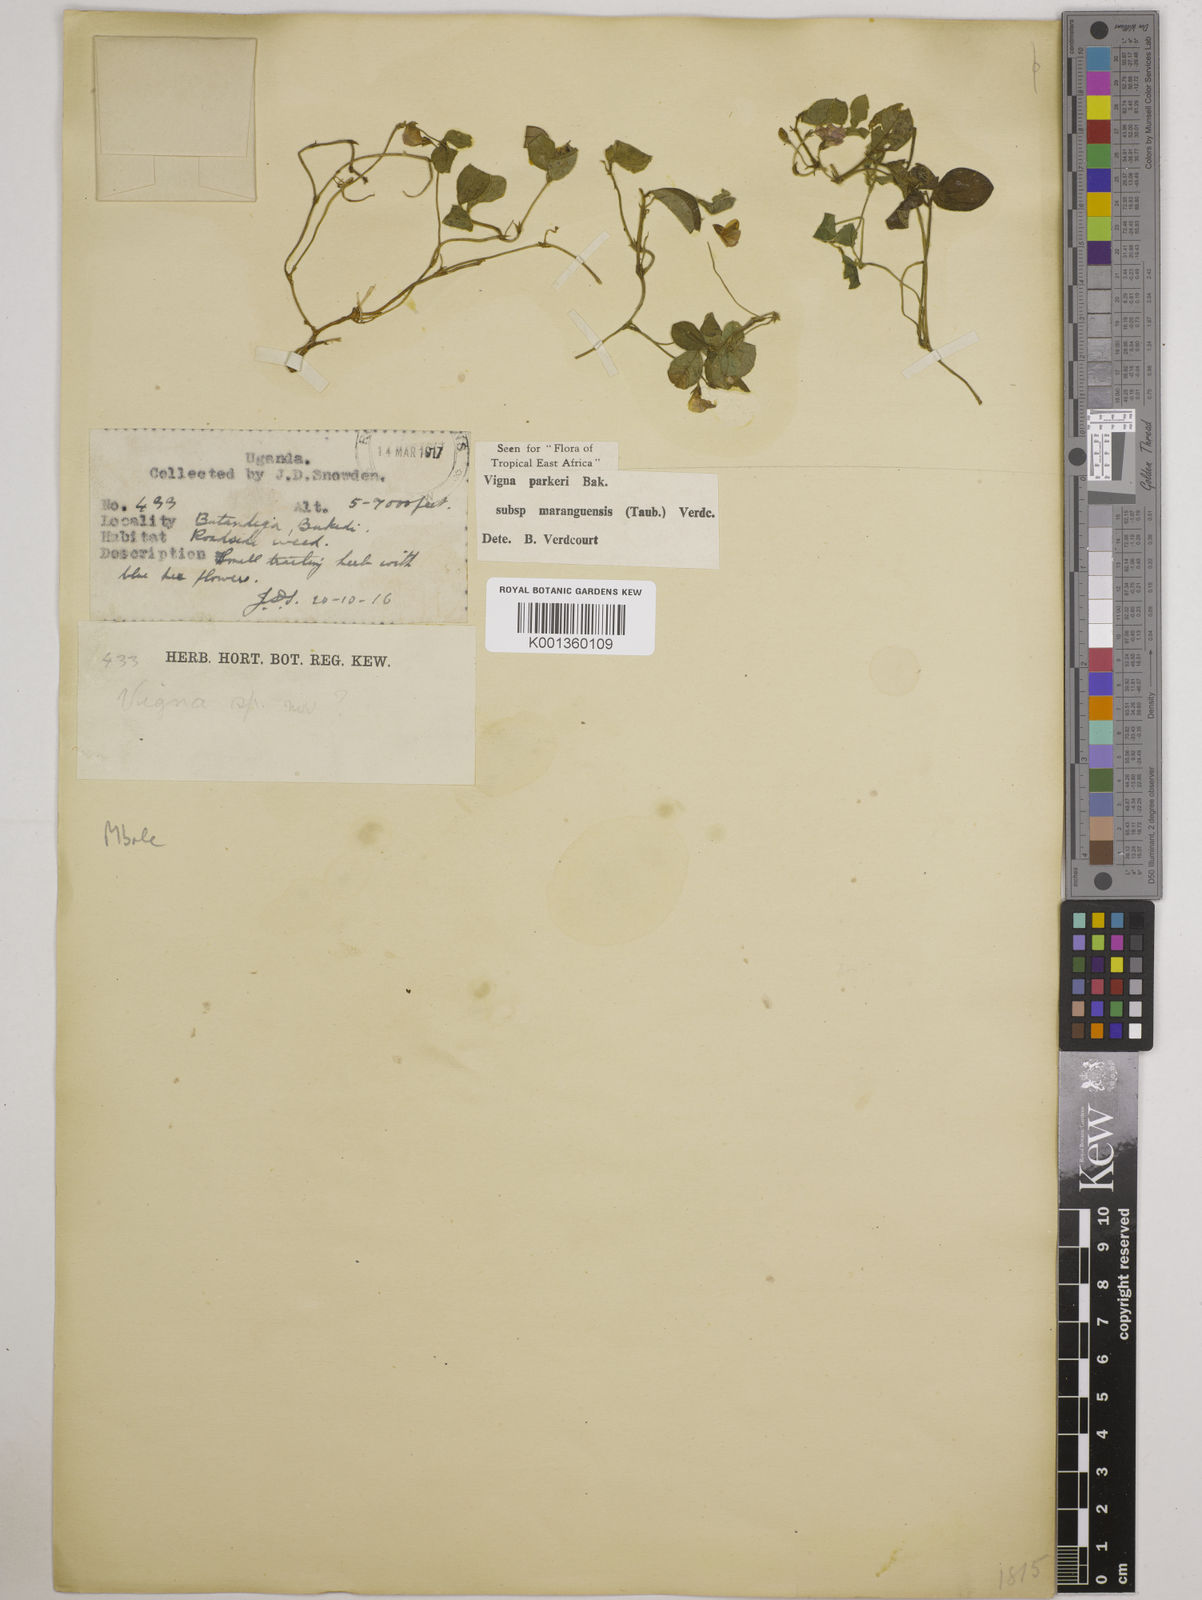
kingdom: Plantae
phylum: Tracheophyta
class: Magnoliopsida
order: Fabales
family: Fabaceae
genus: Vigna
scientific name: Vigna
